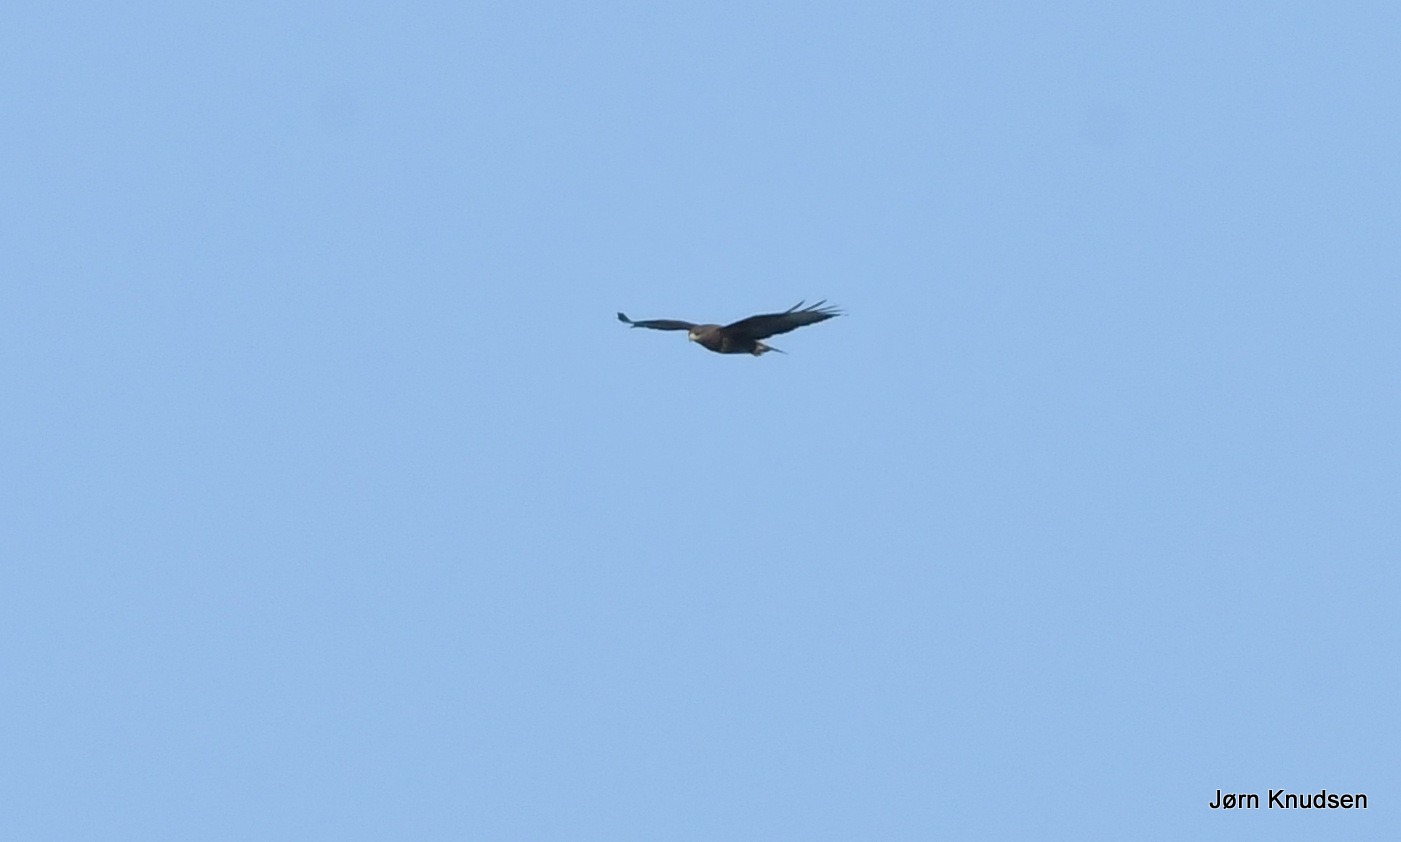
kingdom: Animalia
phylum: Chordata
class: Aves
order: Accipitriformes
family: Accipitridae
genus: Buteo
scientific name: Buteo buteo
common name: Musvåge
